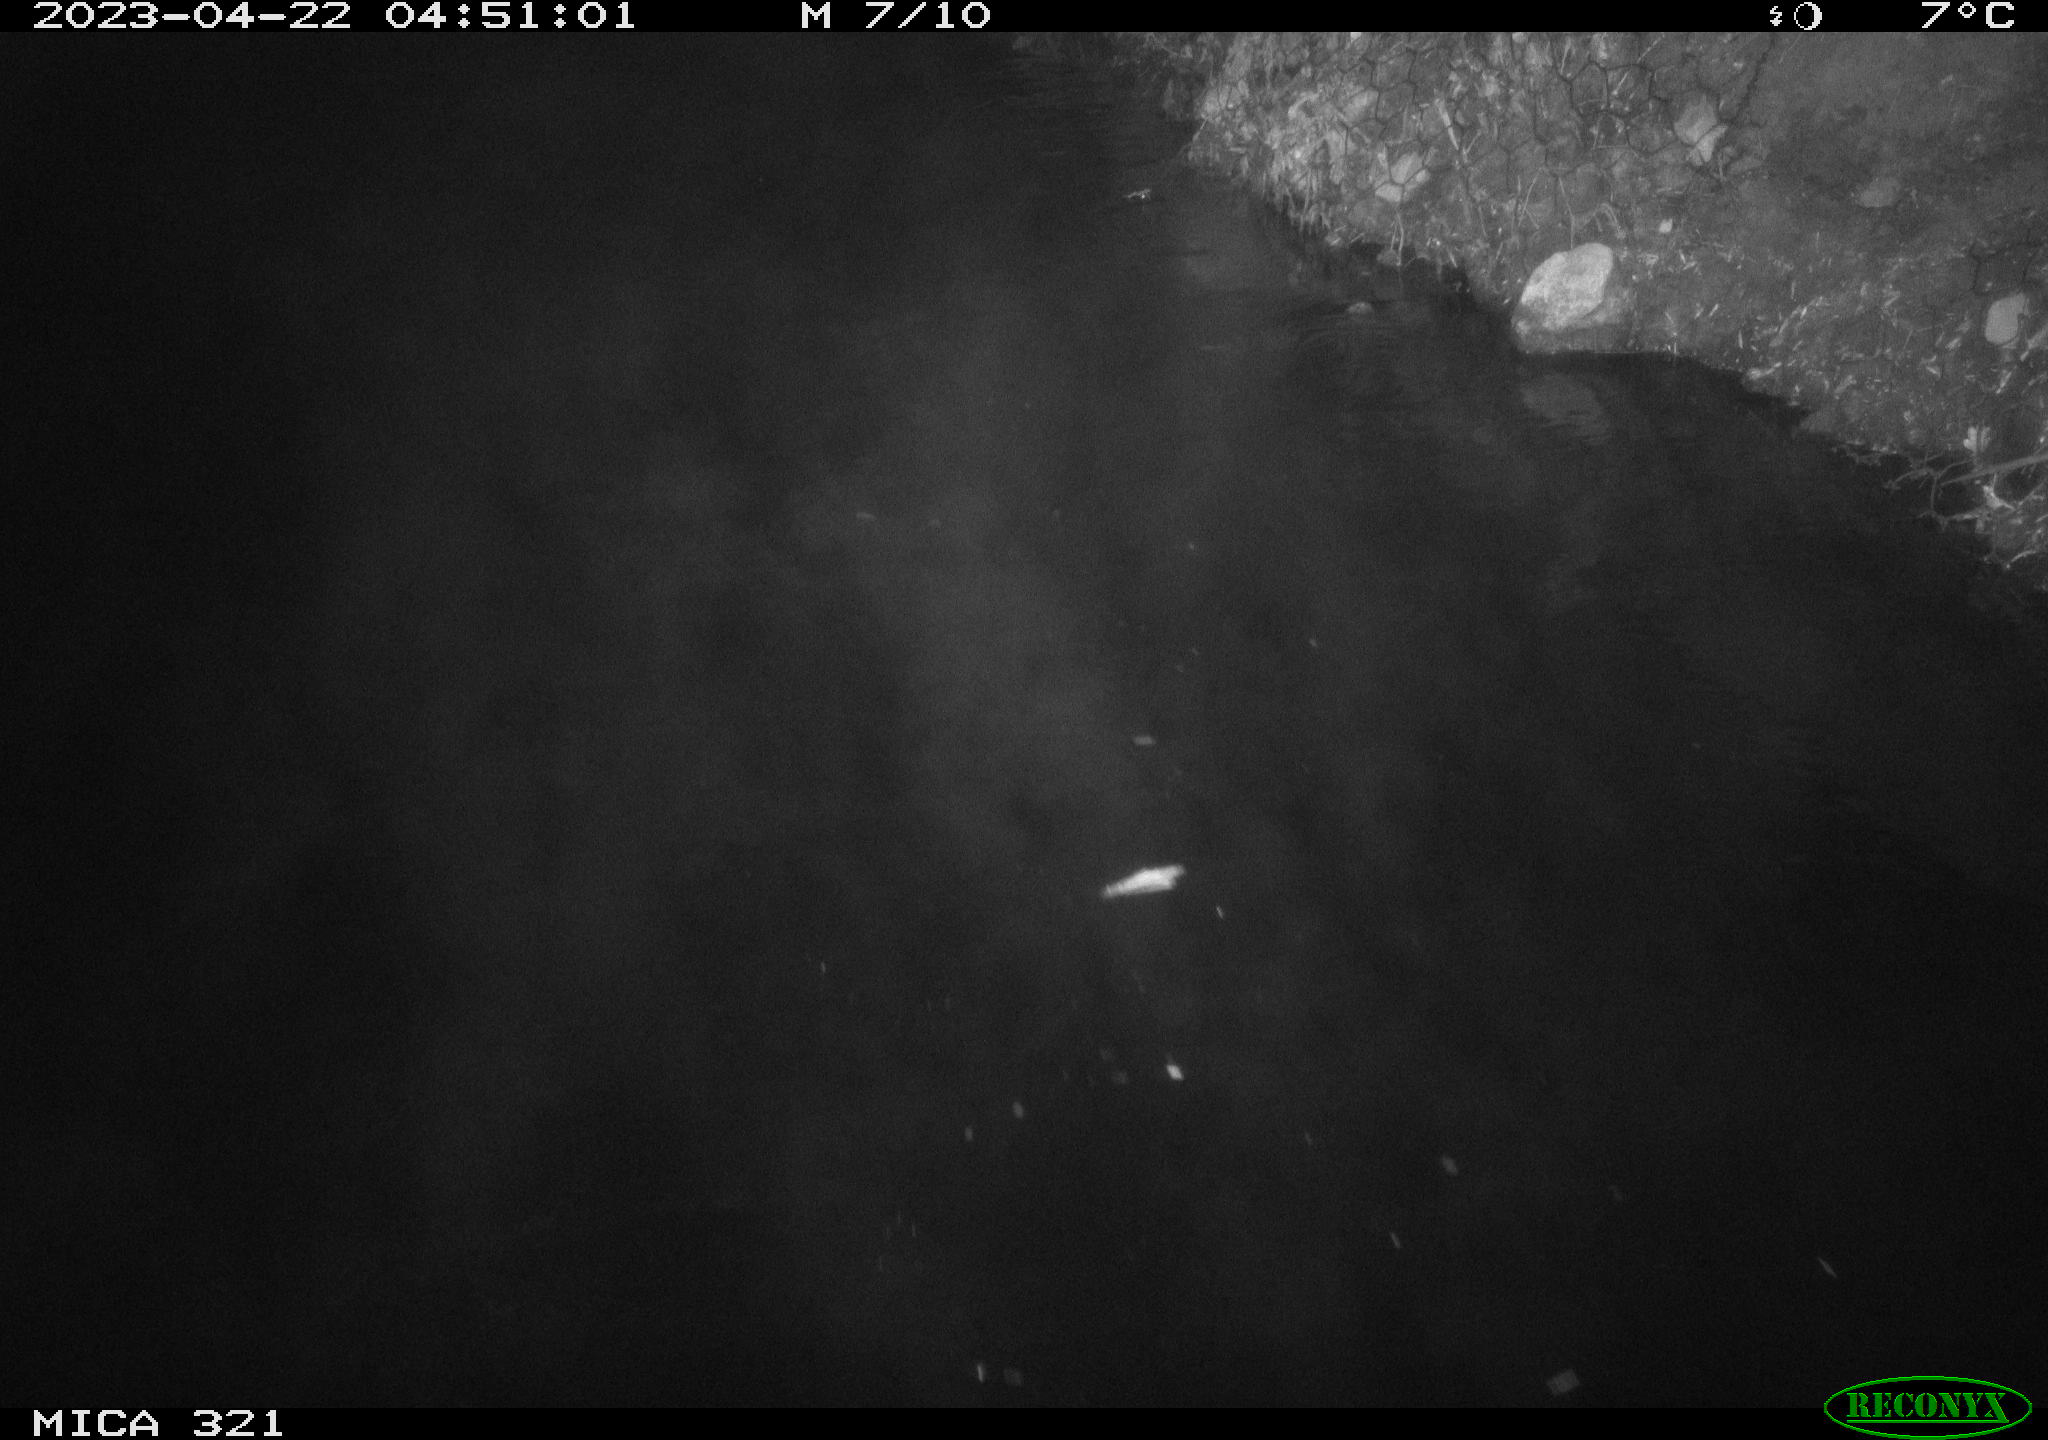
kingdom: Animalia
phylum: Chordata
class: Aves
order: Anseriformes
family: Anatidae
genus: Anas
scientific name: Anas
